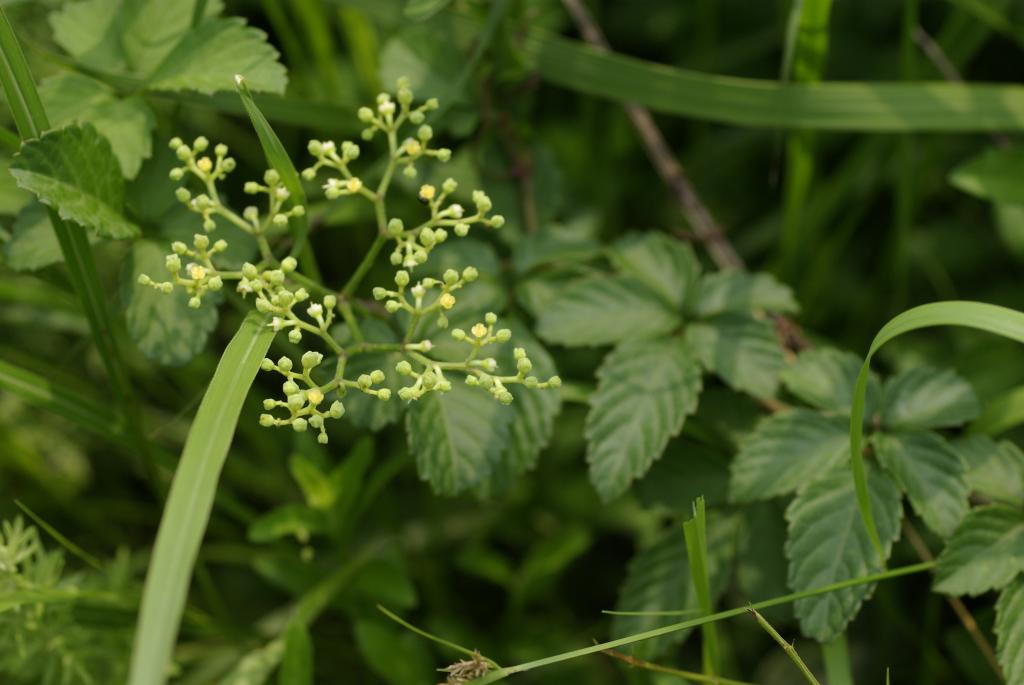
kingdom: Plantae
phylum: Tracheophyta
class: Magnoliopsida
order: Vitales
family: Vitaceae
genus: Causonis
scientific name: Causonis japonica
